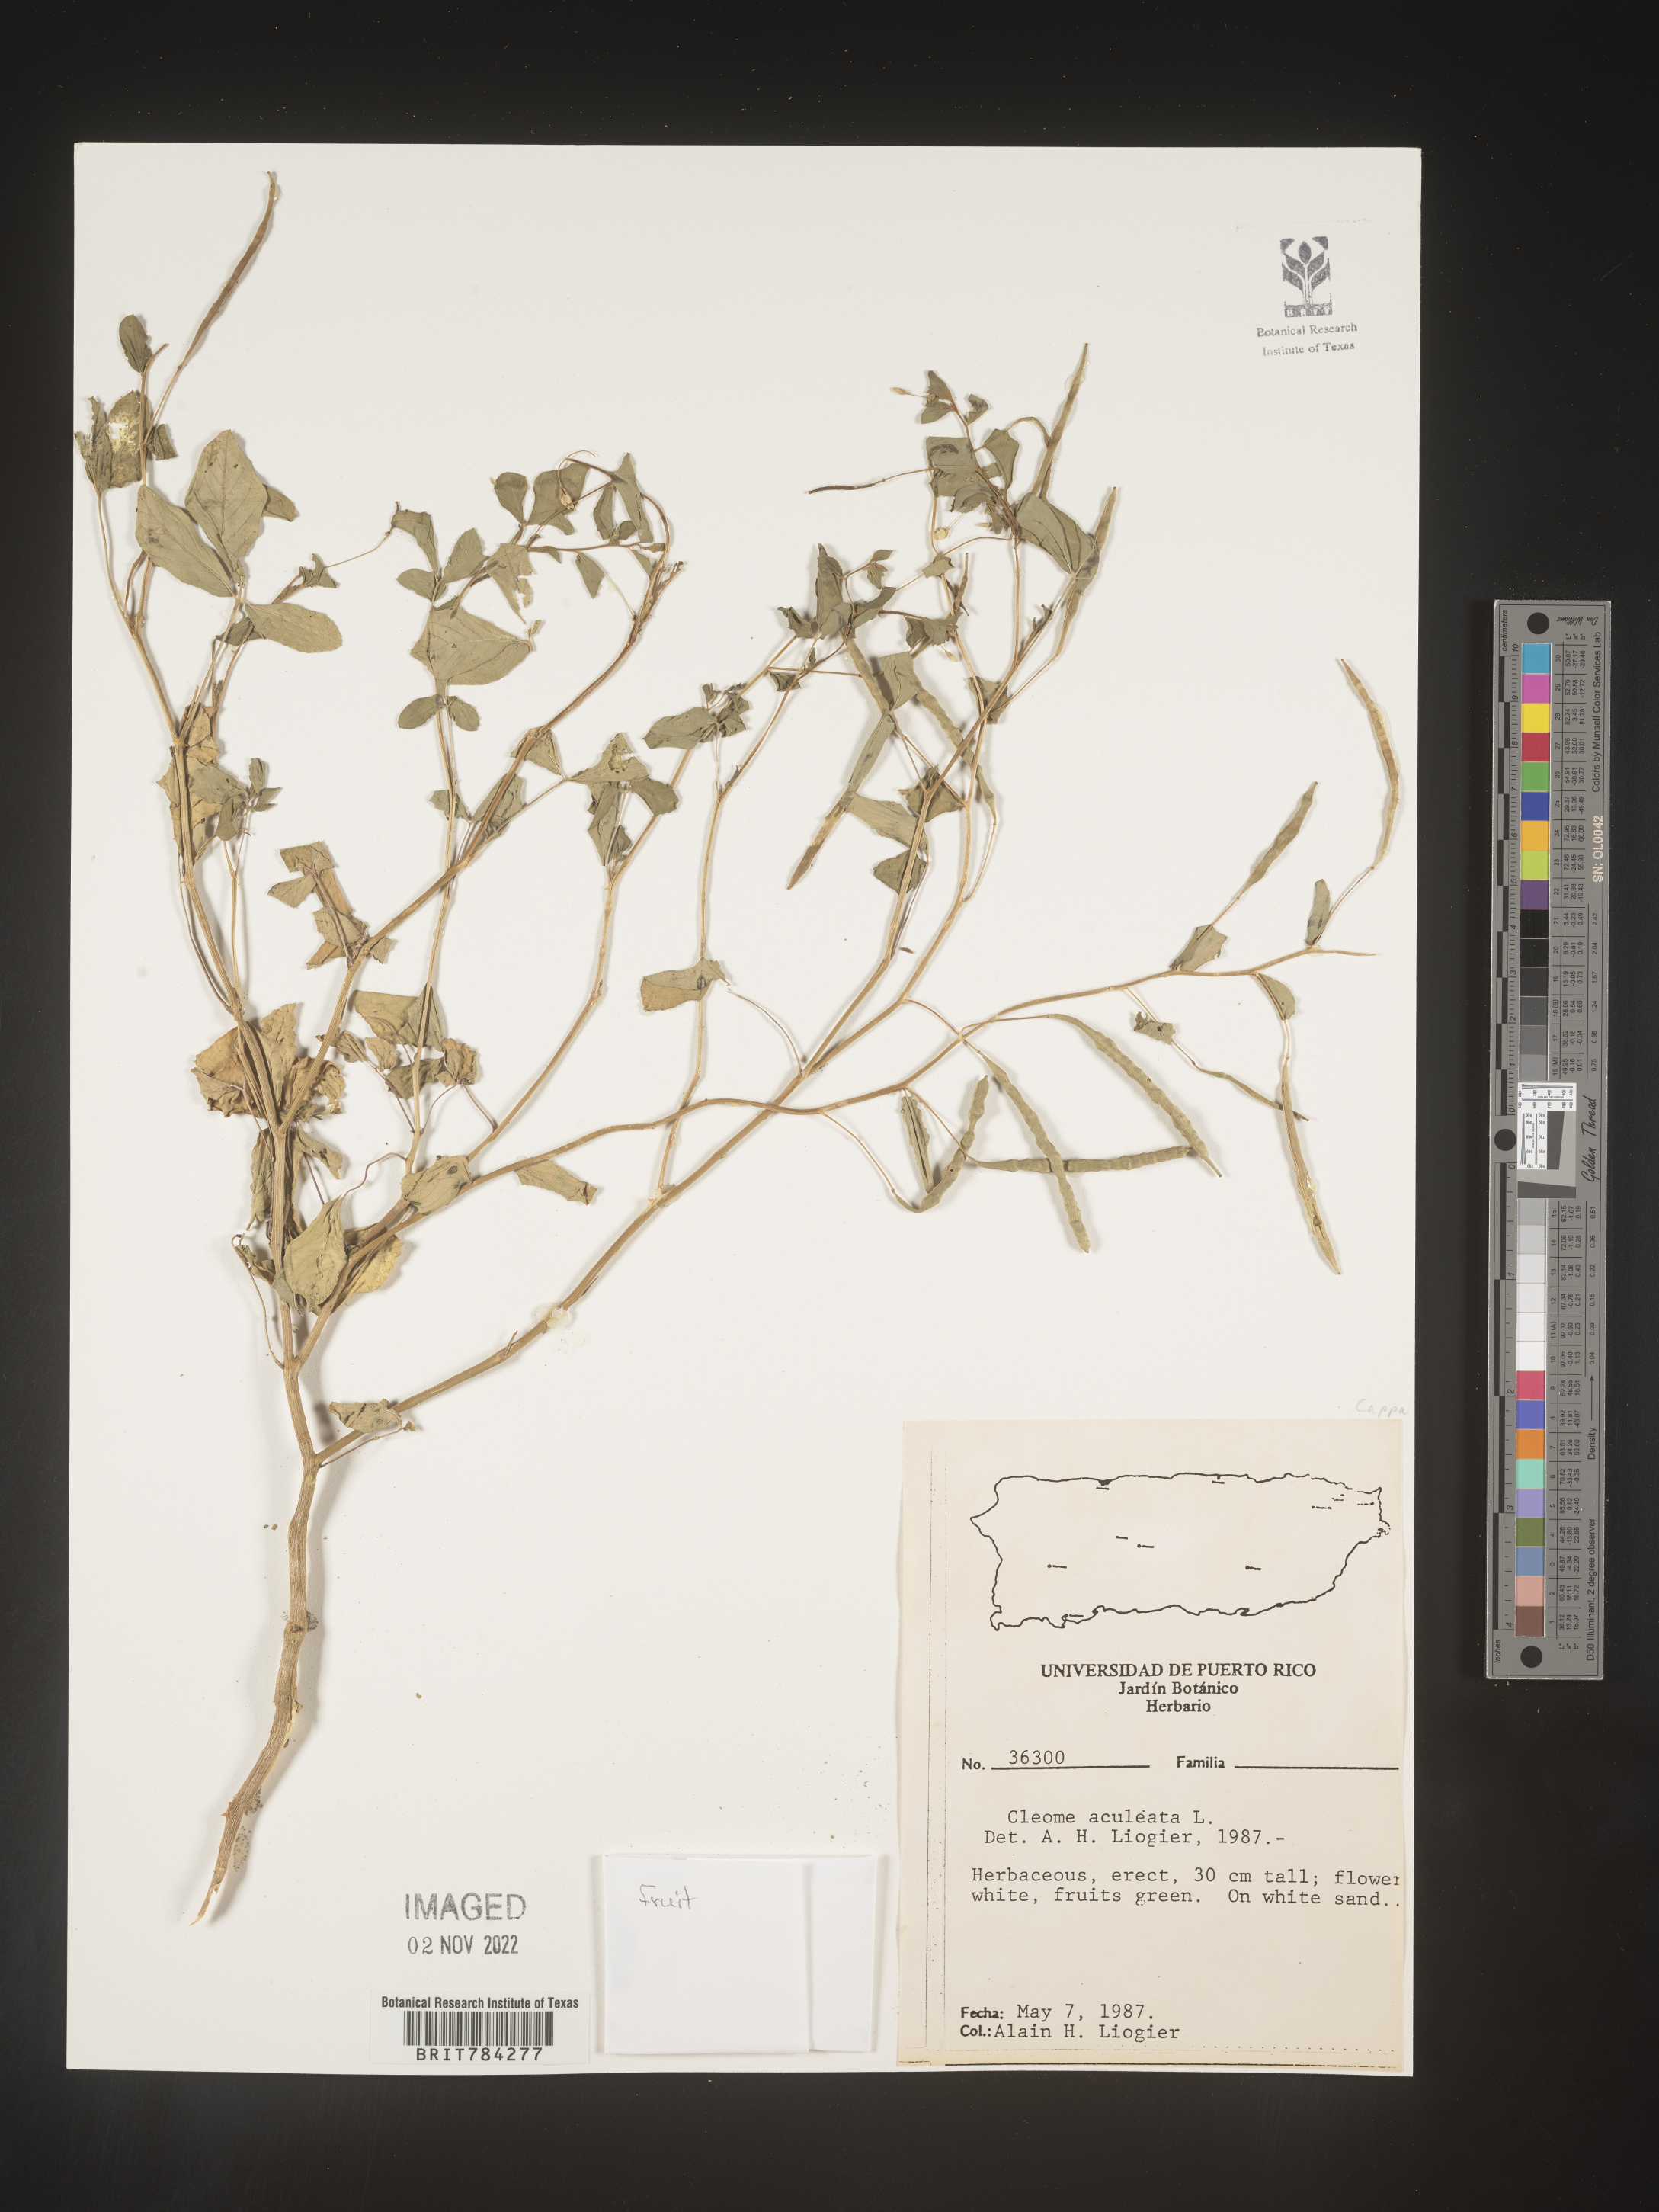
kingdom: Plantae
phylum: Tracheophyta
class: Magnoliopsida
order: Brassicales
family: Cleomaceae
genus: Cleome
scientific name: Cleome
